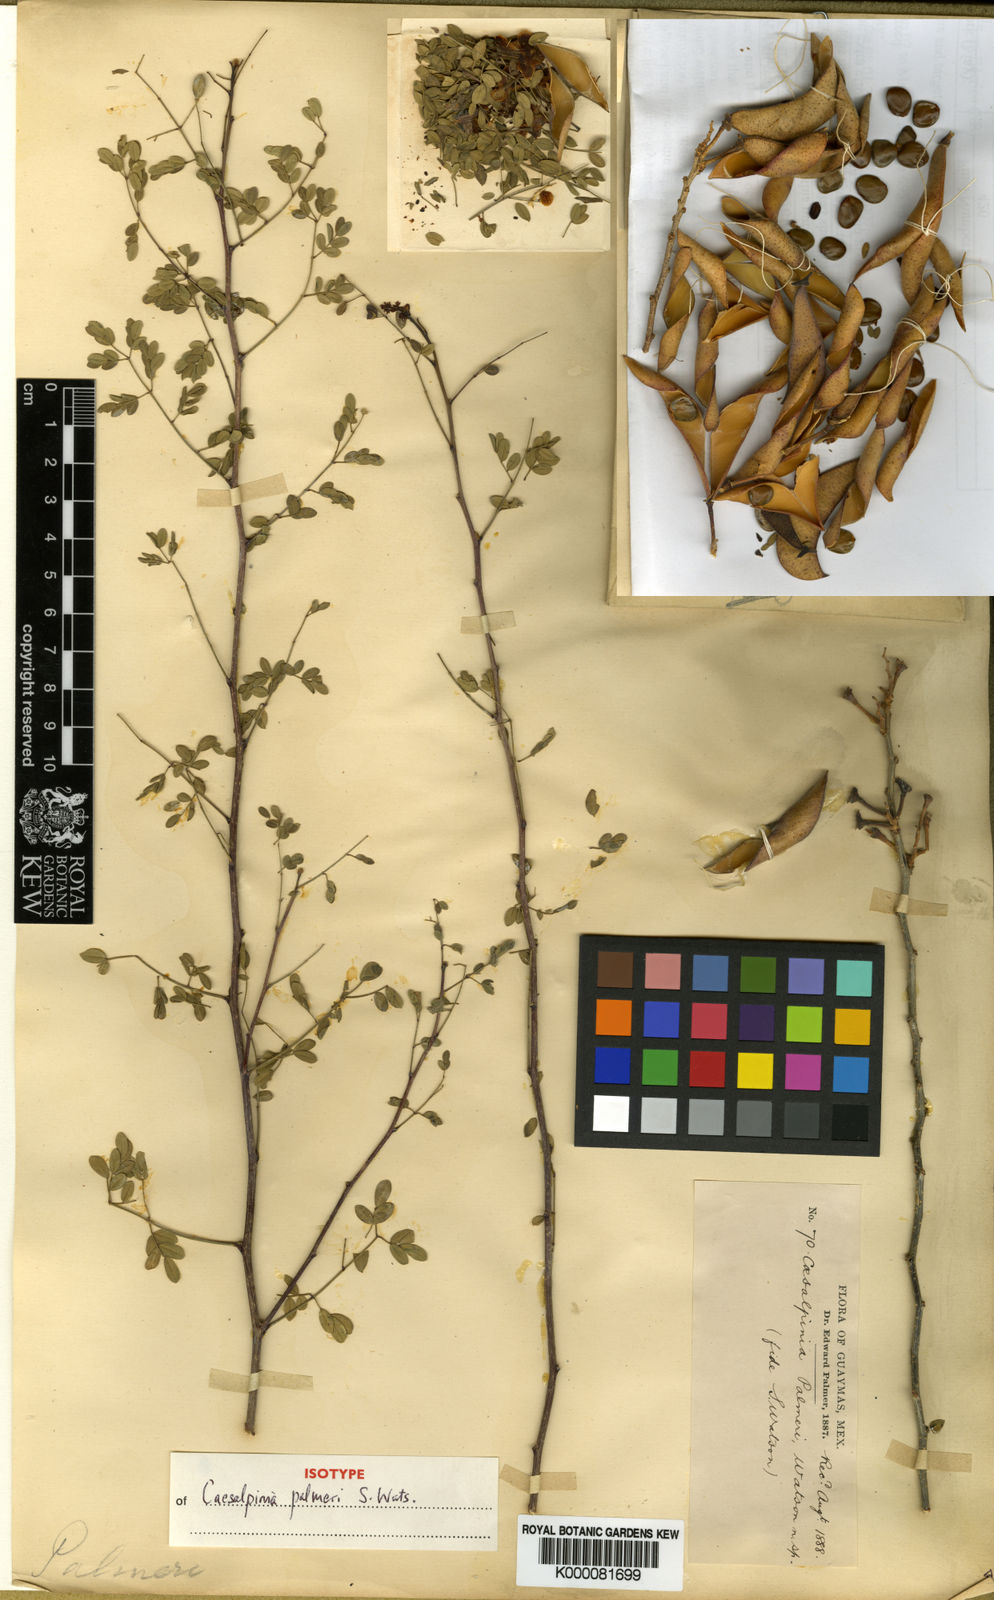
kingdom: Plantae
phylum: Tracheophyta
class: Magnoliopsida
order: Fabales
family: Fabaceae
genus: Erythrostemon
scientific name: Erythrostemon palmeri
